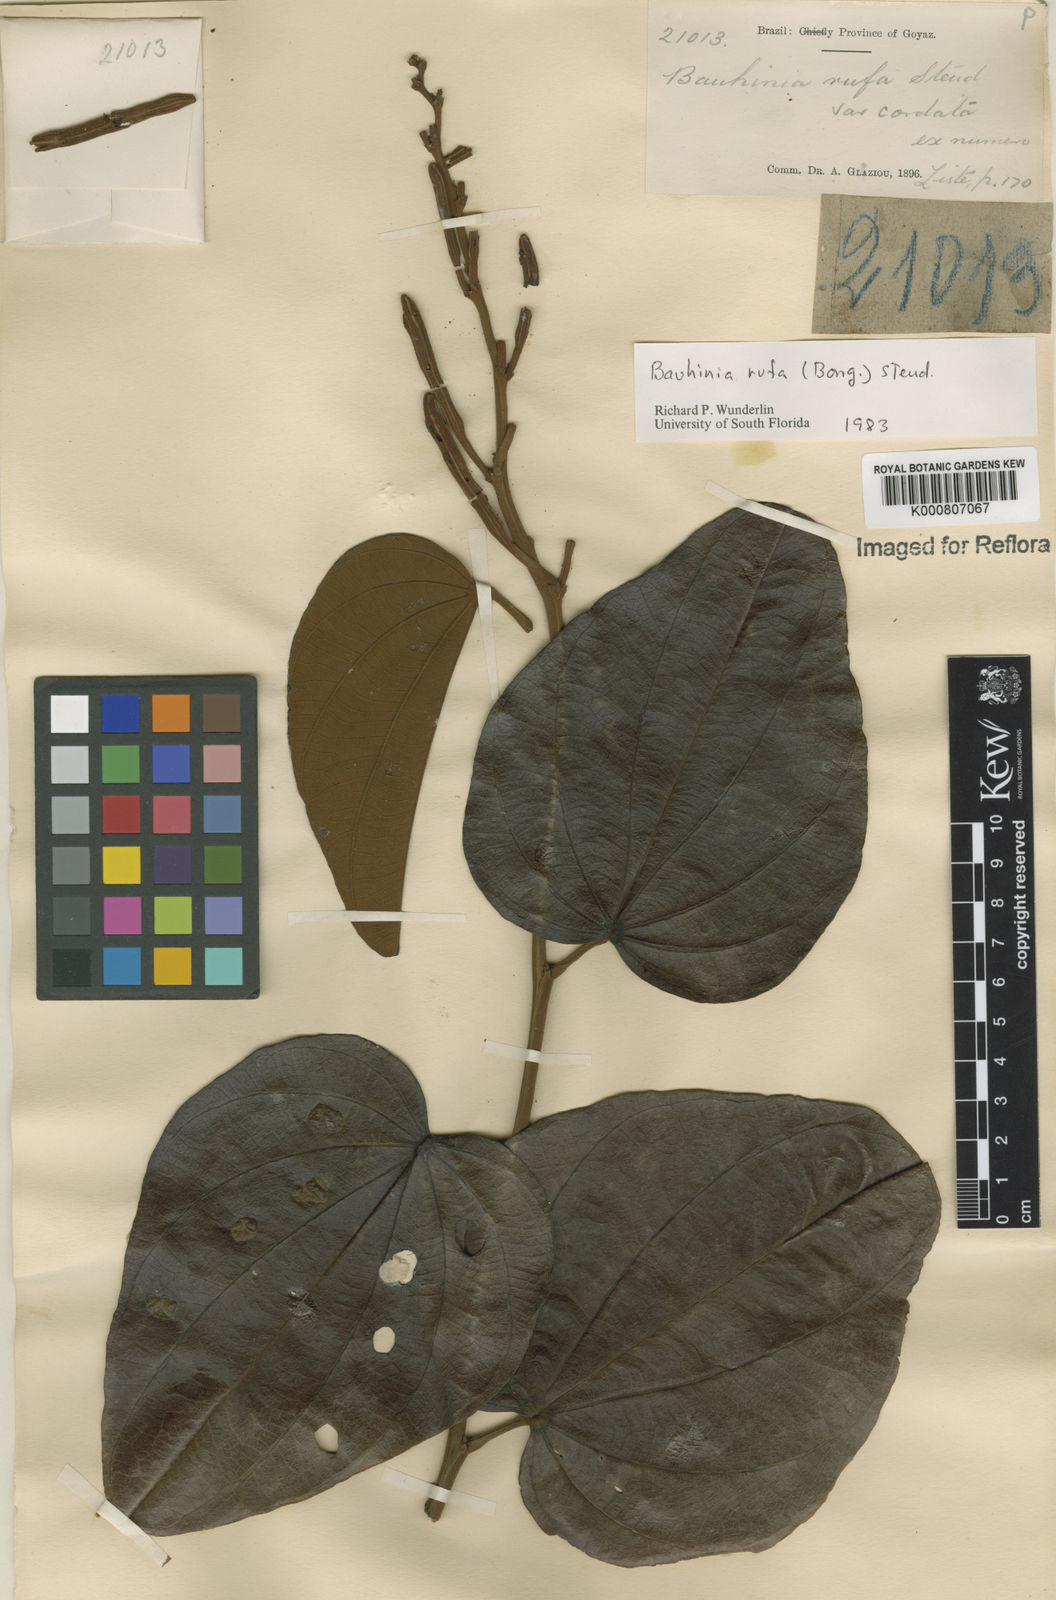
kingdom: Plantae
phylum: Tracheophyta
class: Magnoliopsida
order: Fabales
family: Fabaceae
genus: Bauhinia
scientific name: Bauhinia rufa
